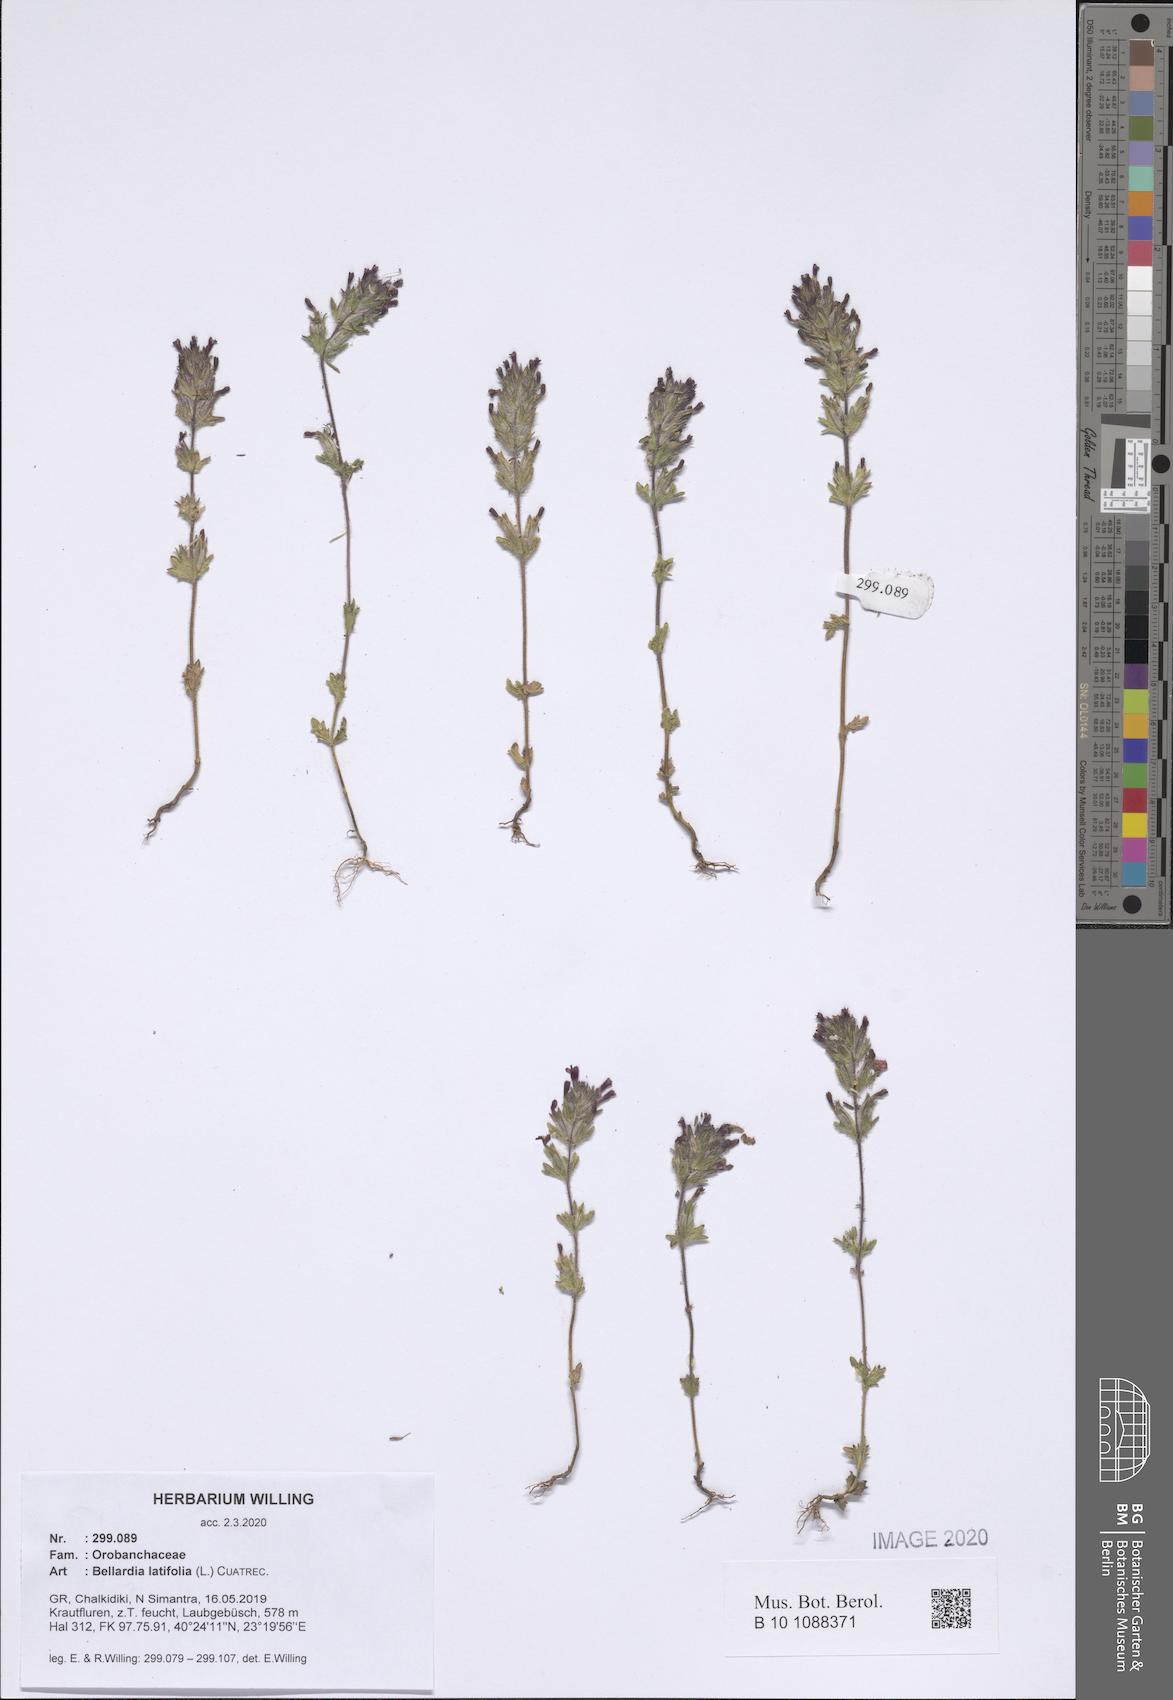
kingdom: Plantae
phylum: Tracheophyta
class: Magnoliopsida
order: Lamiales
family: Orobanchaceae
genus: Parentucellia
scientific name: Parentucellia latifolia
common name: Broadleaf glandweed
